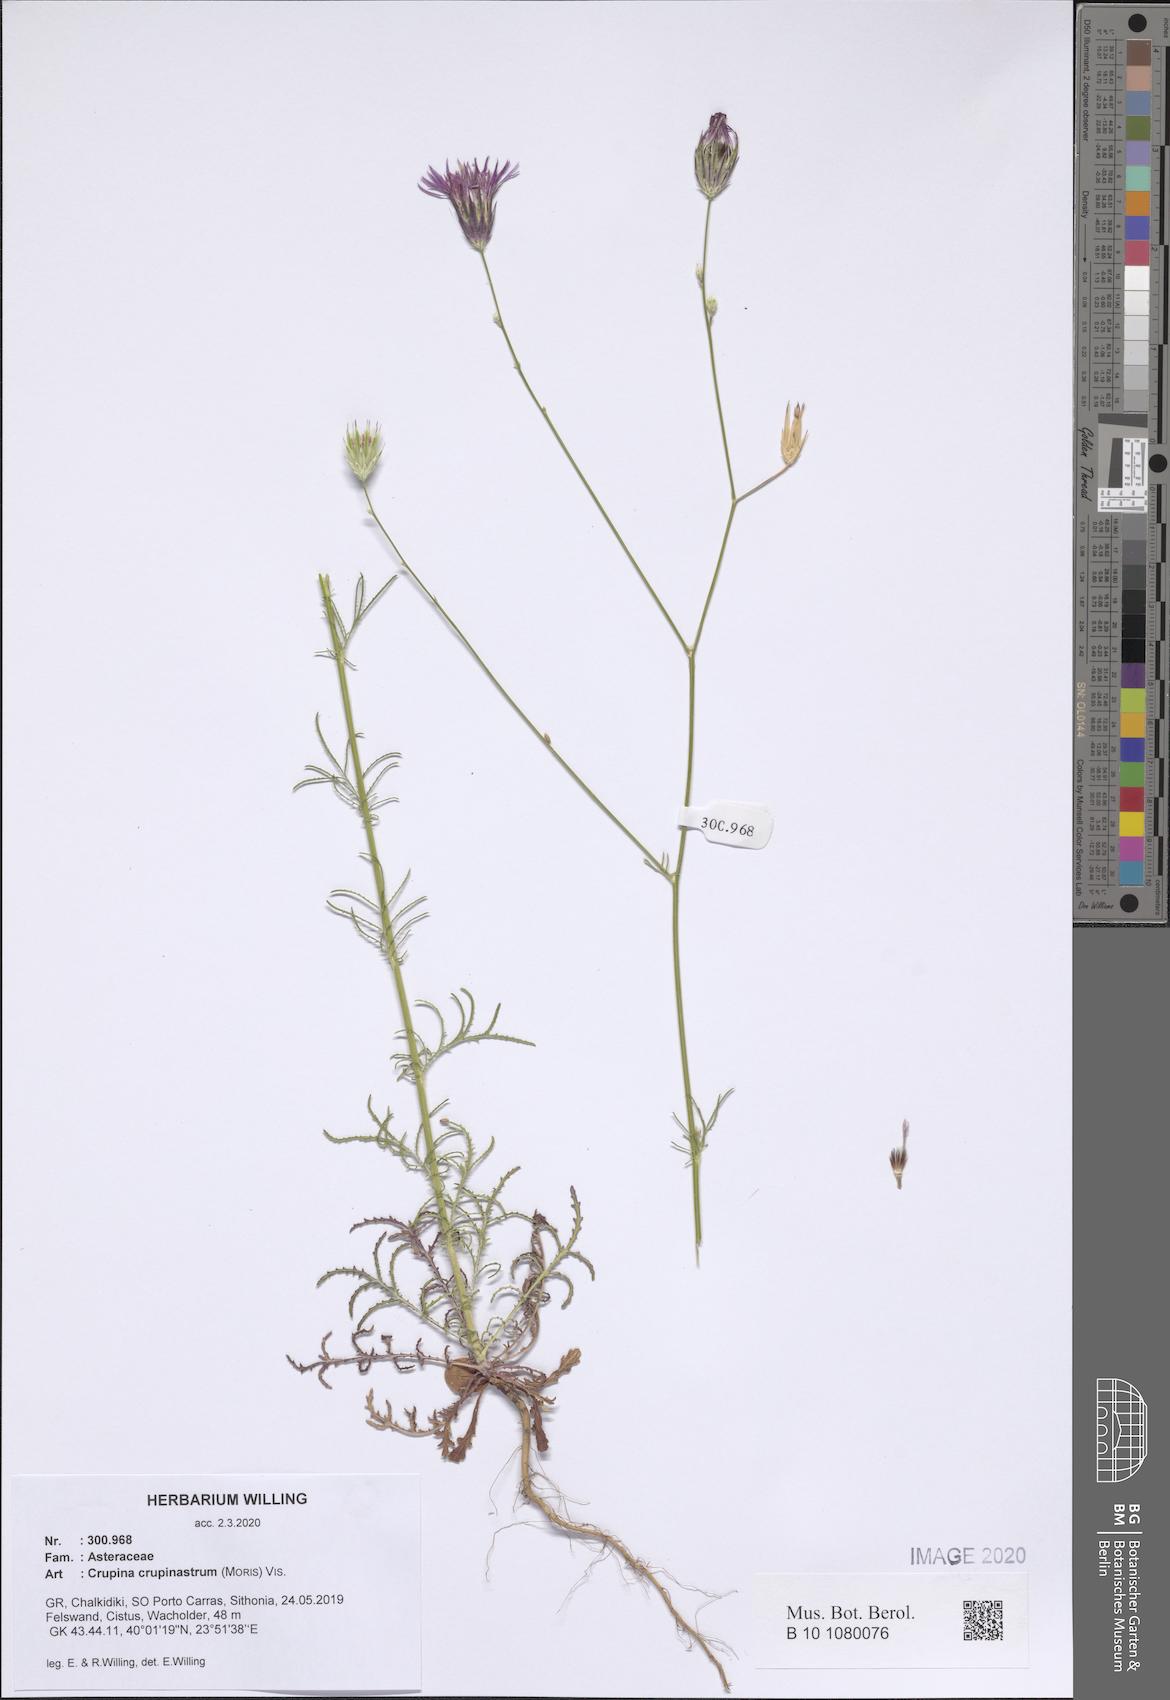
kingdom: Plantae
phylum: Tracheophyta
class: Magnoliopsida
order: Asterales
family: Asteraceae
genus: Crupina
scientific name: Crupina crupinastrum
